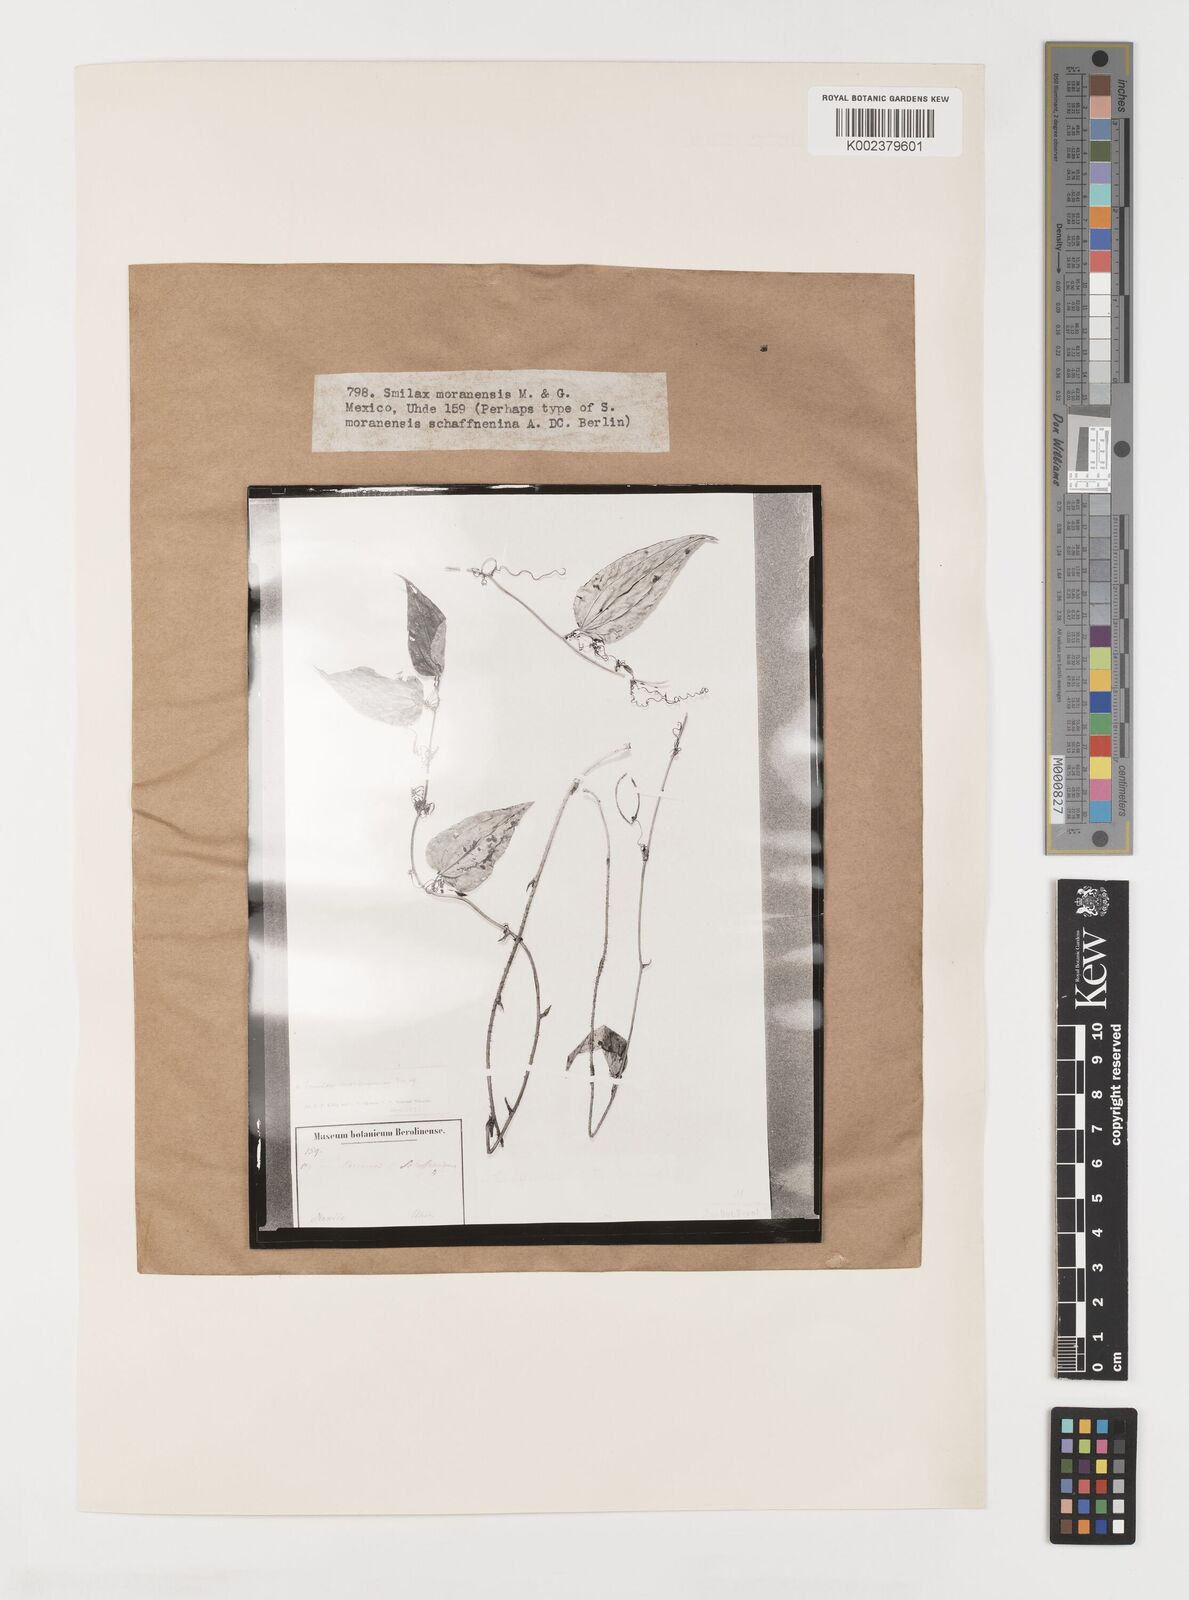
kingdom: Plantae
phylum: Tracheophyta
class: Liliopsida
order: Liliales
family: Smilacaceae
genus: Smilax
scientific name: Smilax moranensis
